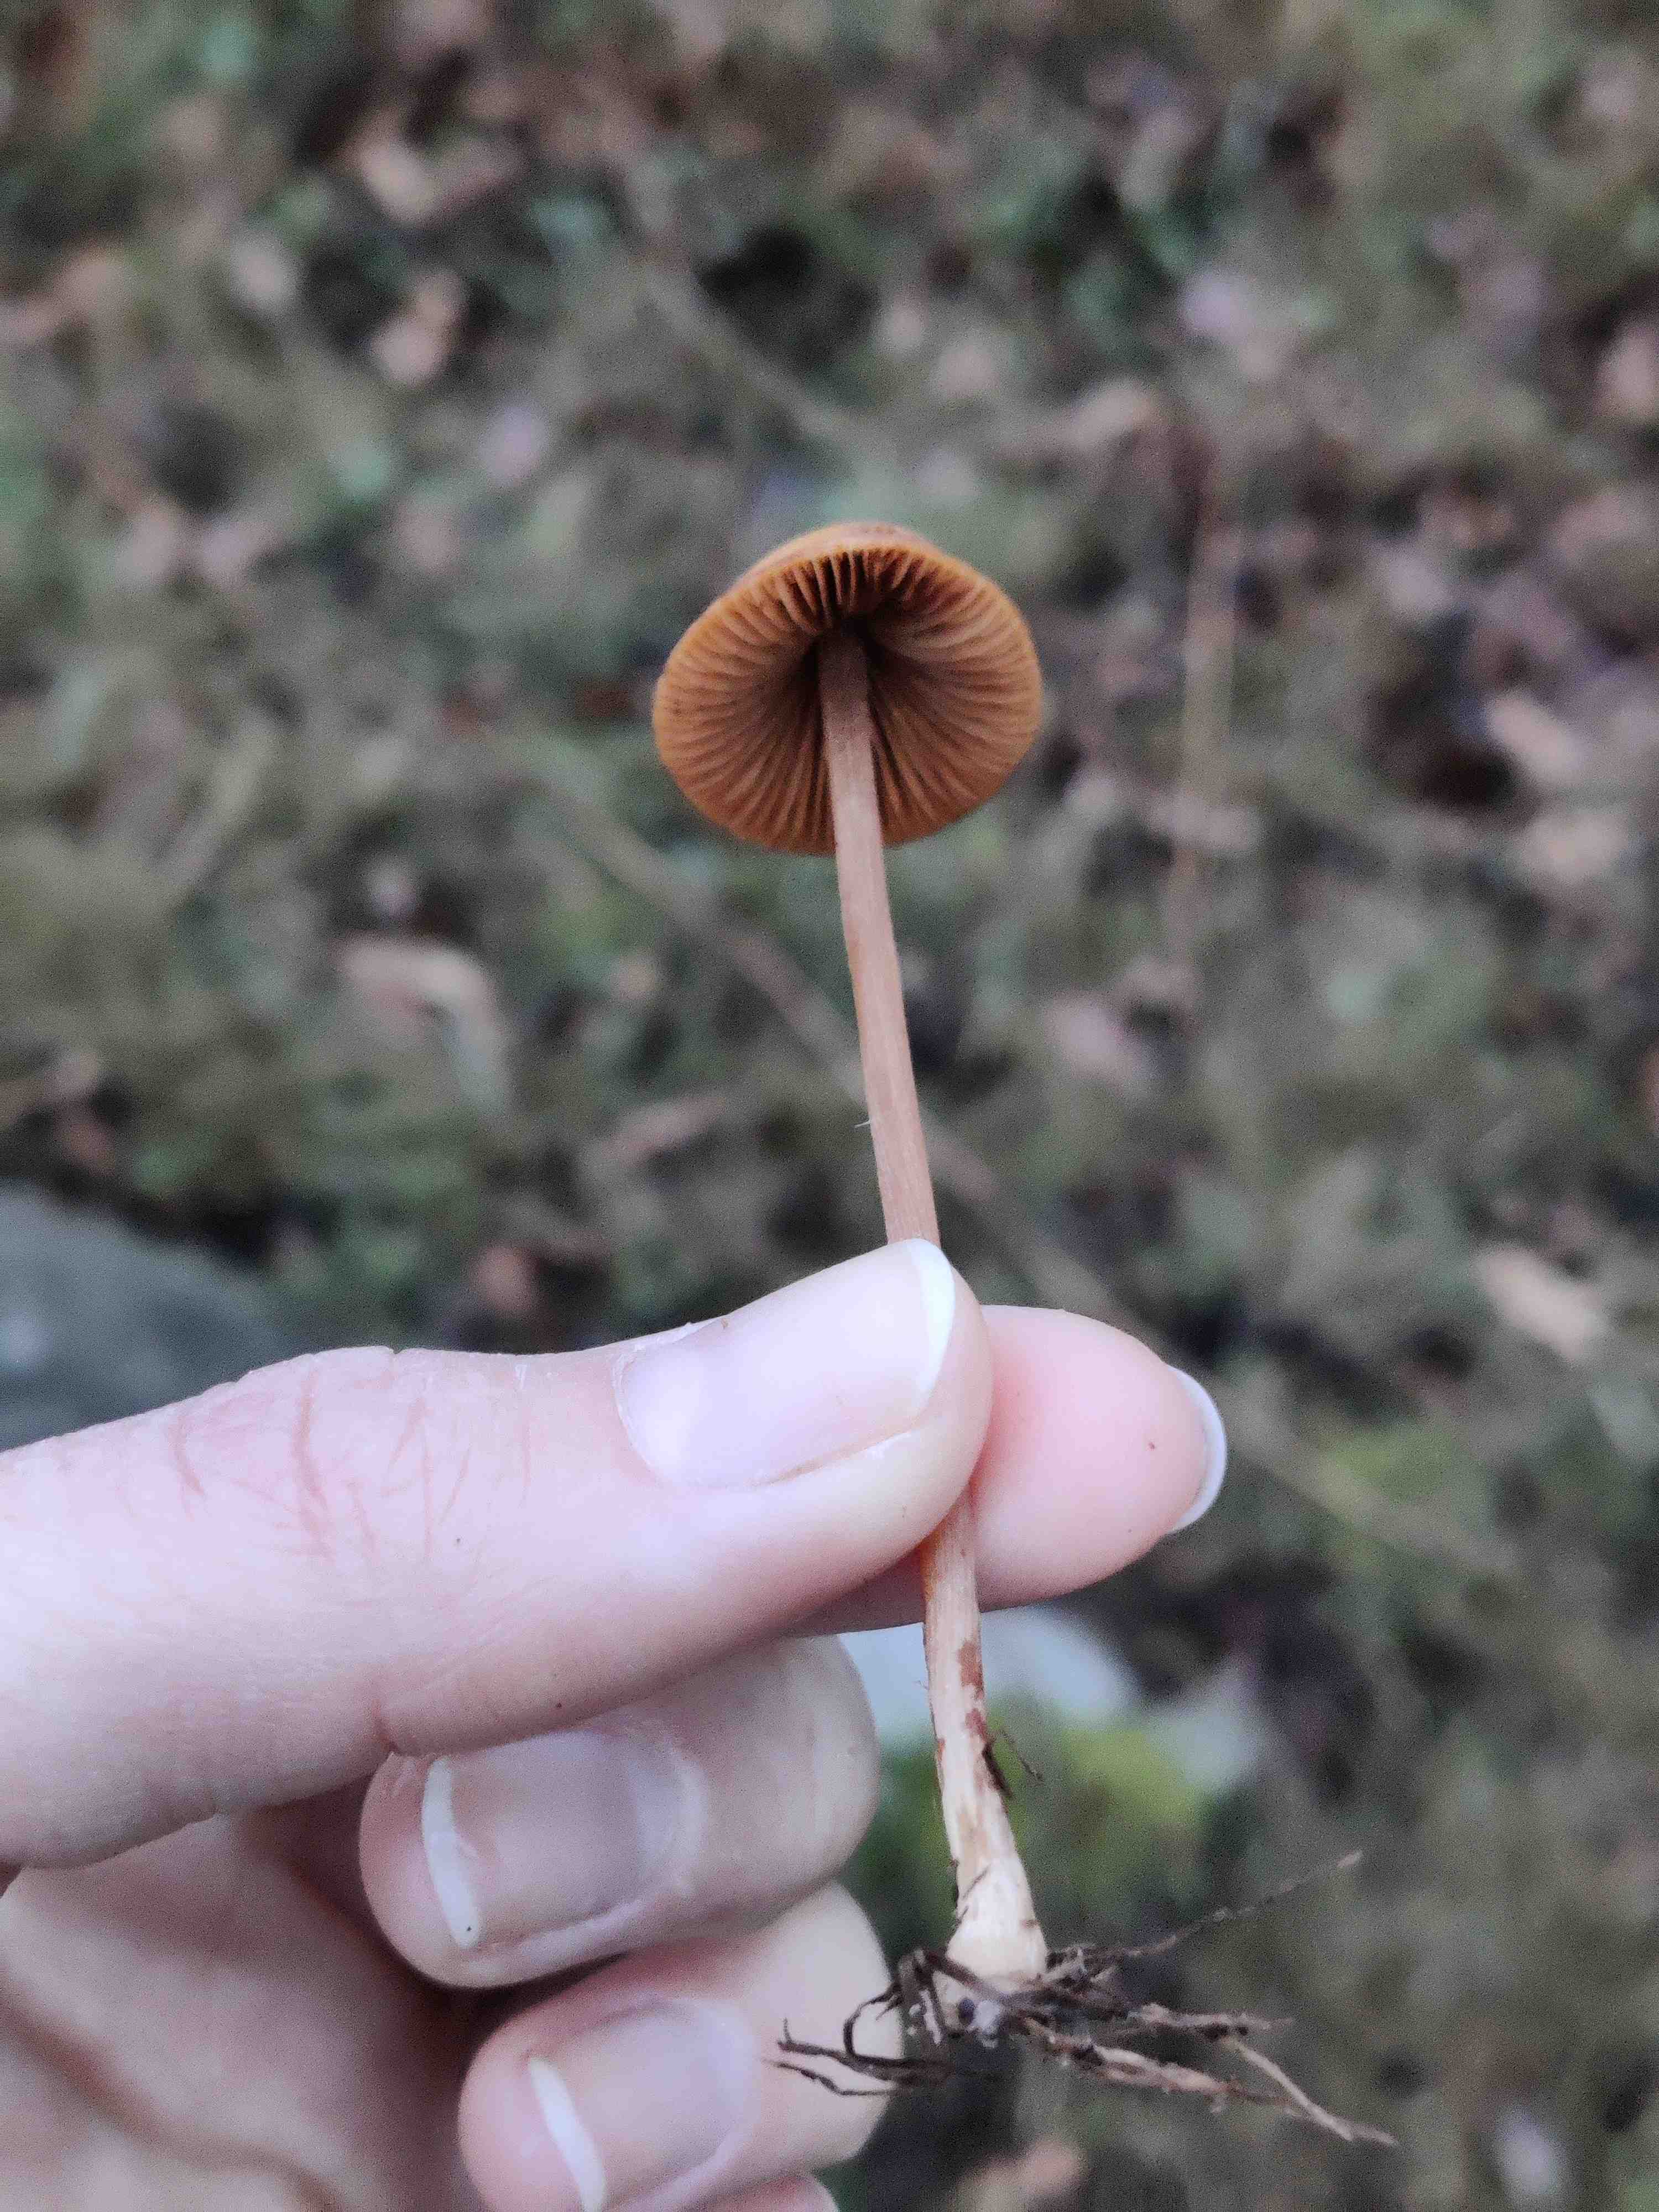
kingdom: Fungi
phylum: Basidiomycota
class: Agaricomycetes
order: Agaricales
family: Bolbitiaceae
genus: Conocybe
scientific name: Conocybe
